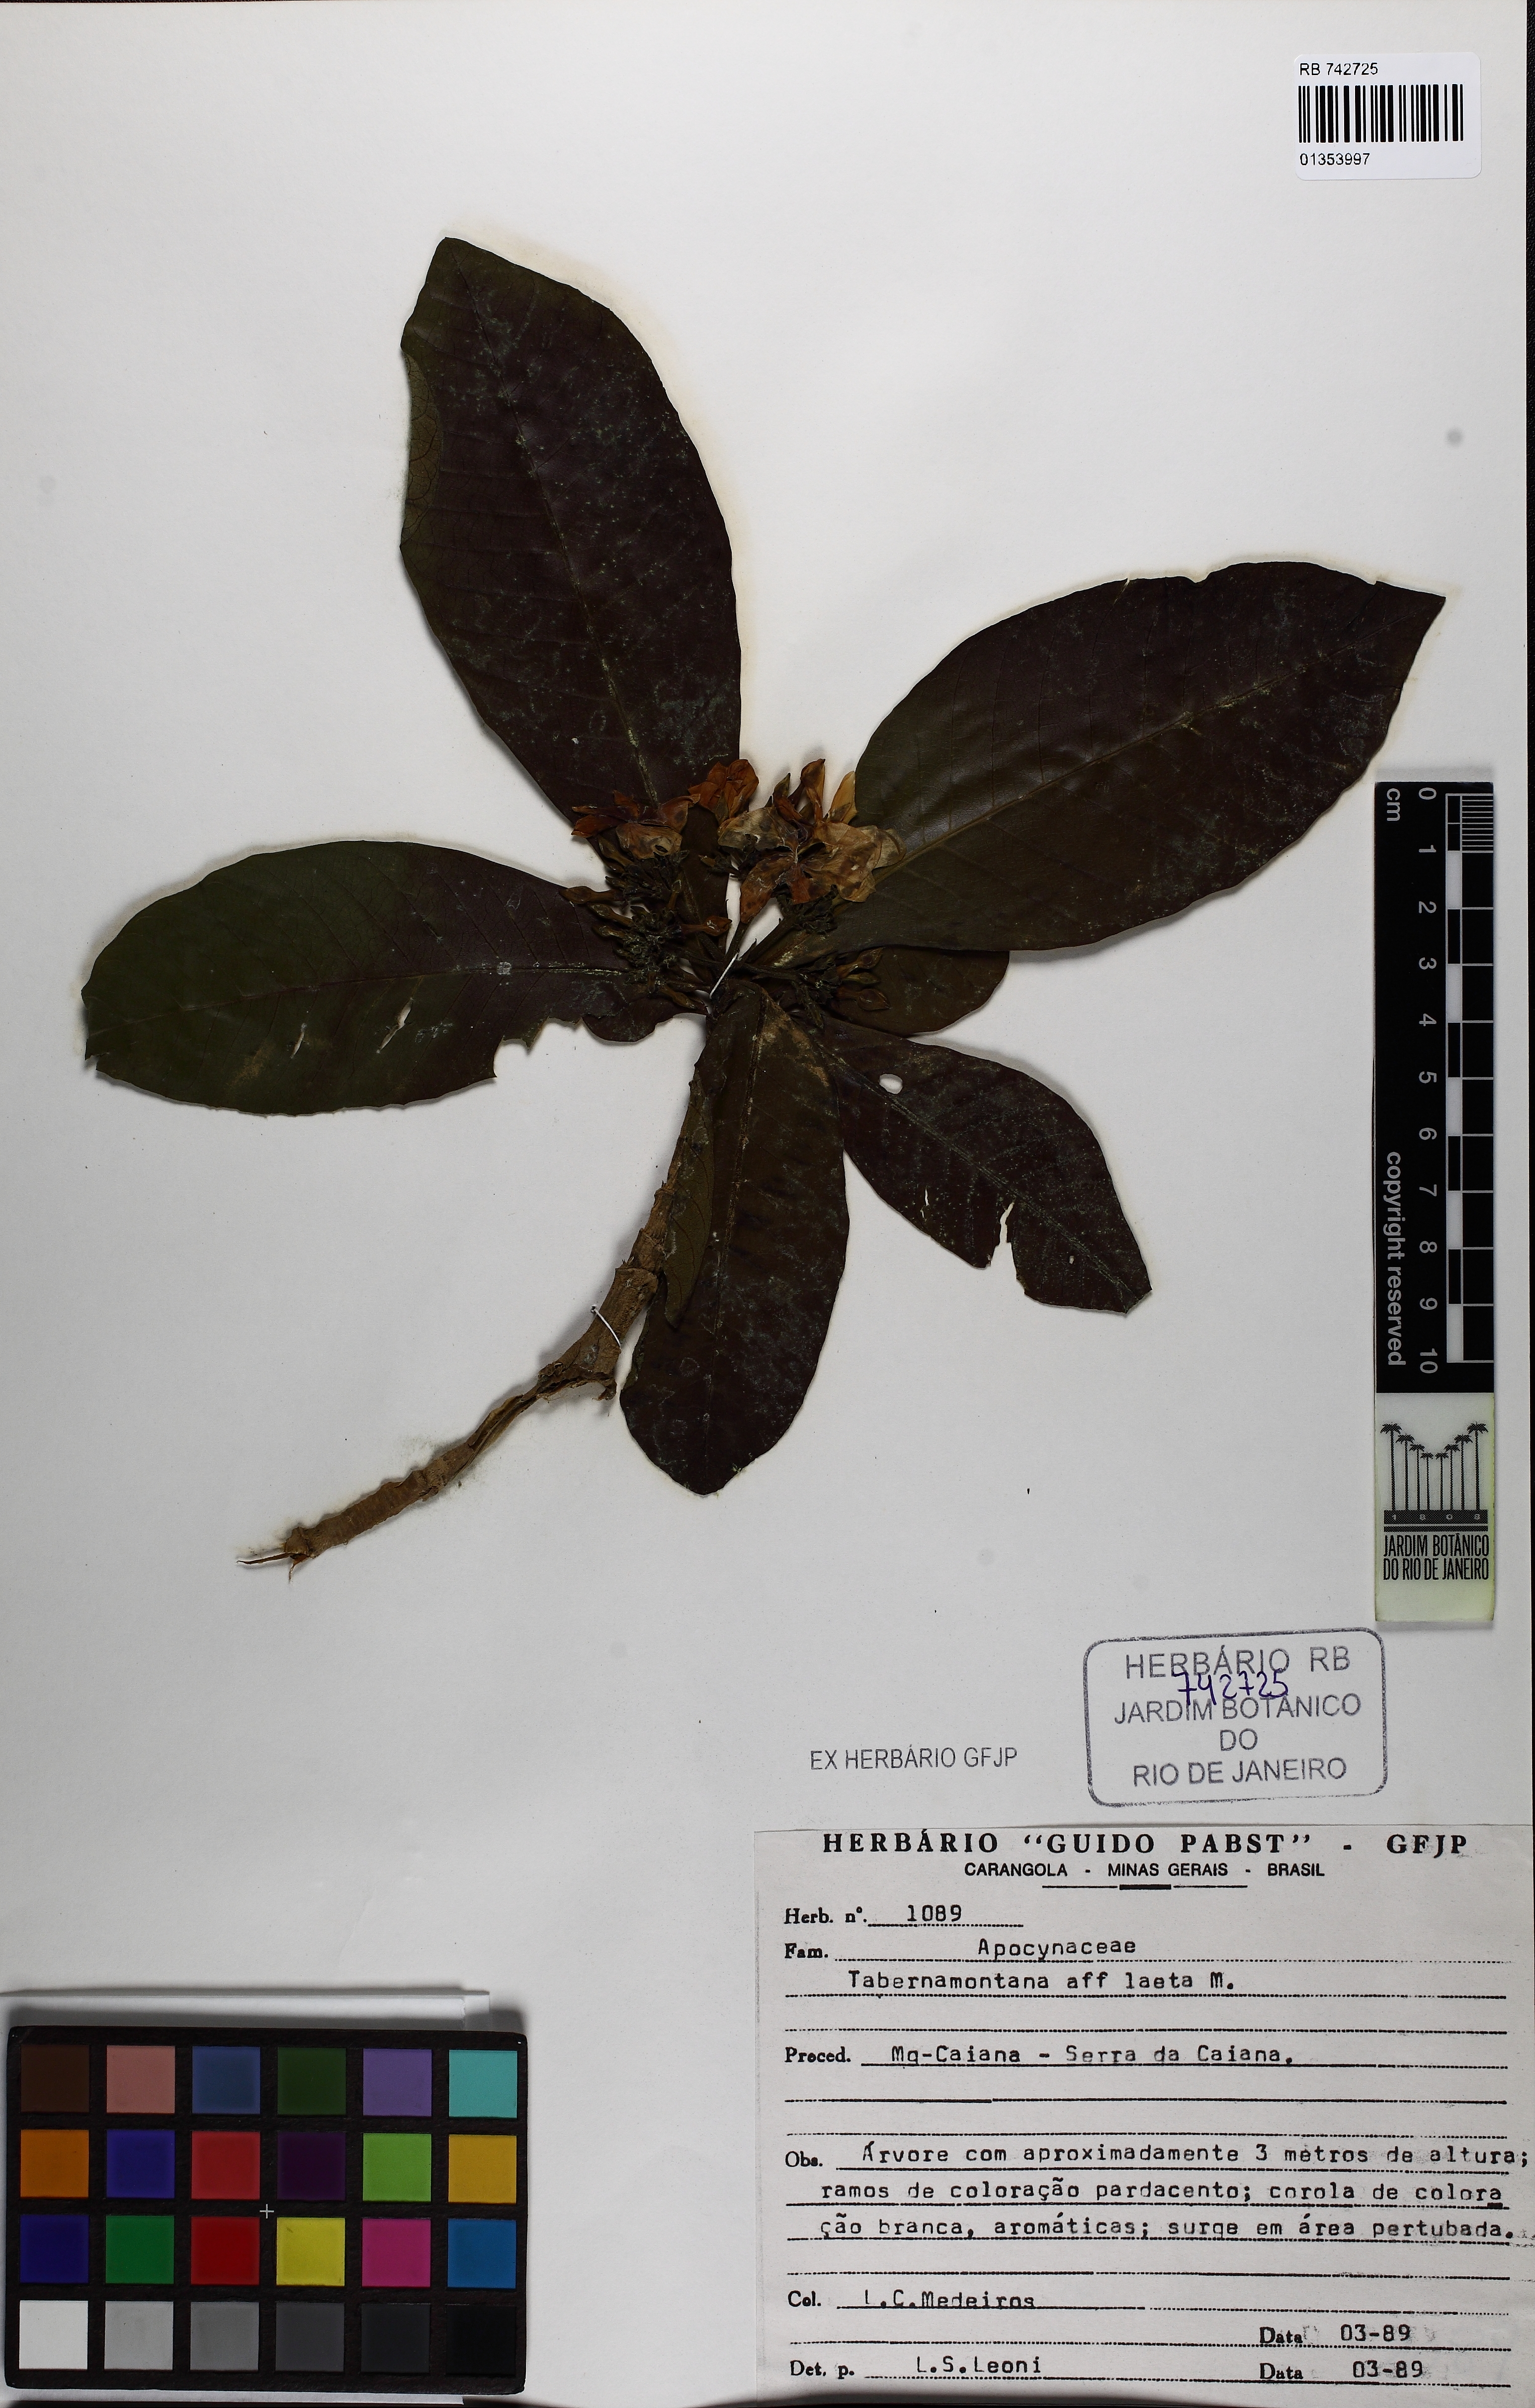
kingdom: Plantae
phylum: Tracheophyta
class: Magnoliopsida
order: Gentianales
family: Apocynaceae
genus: Tabernaemontana
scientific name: Tabernaemontana laeta
